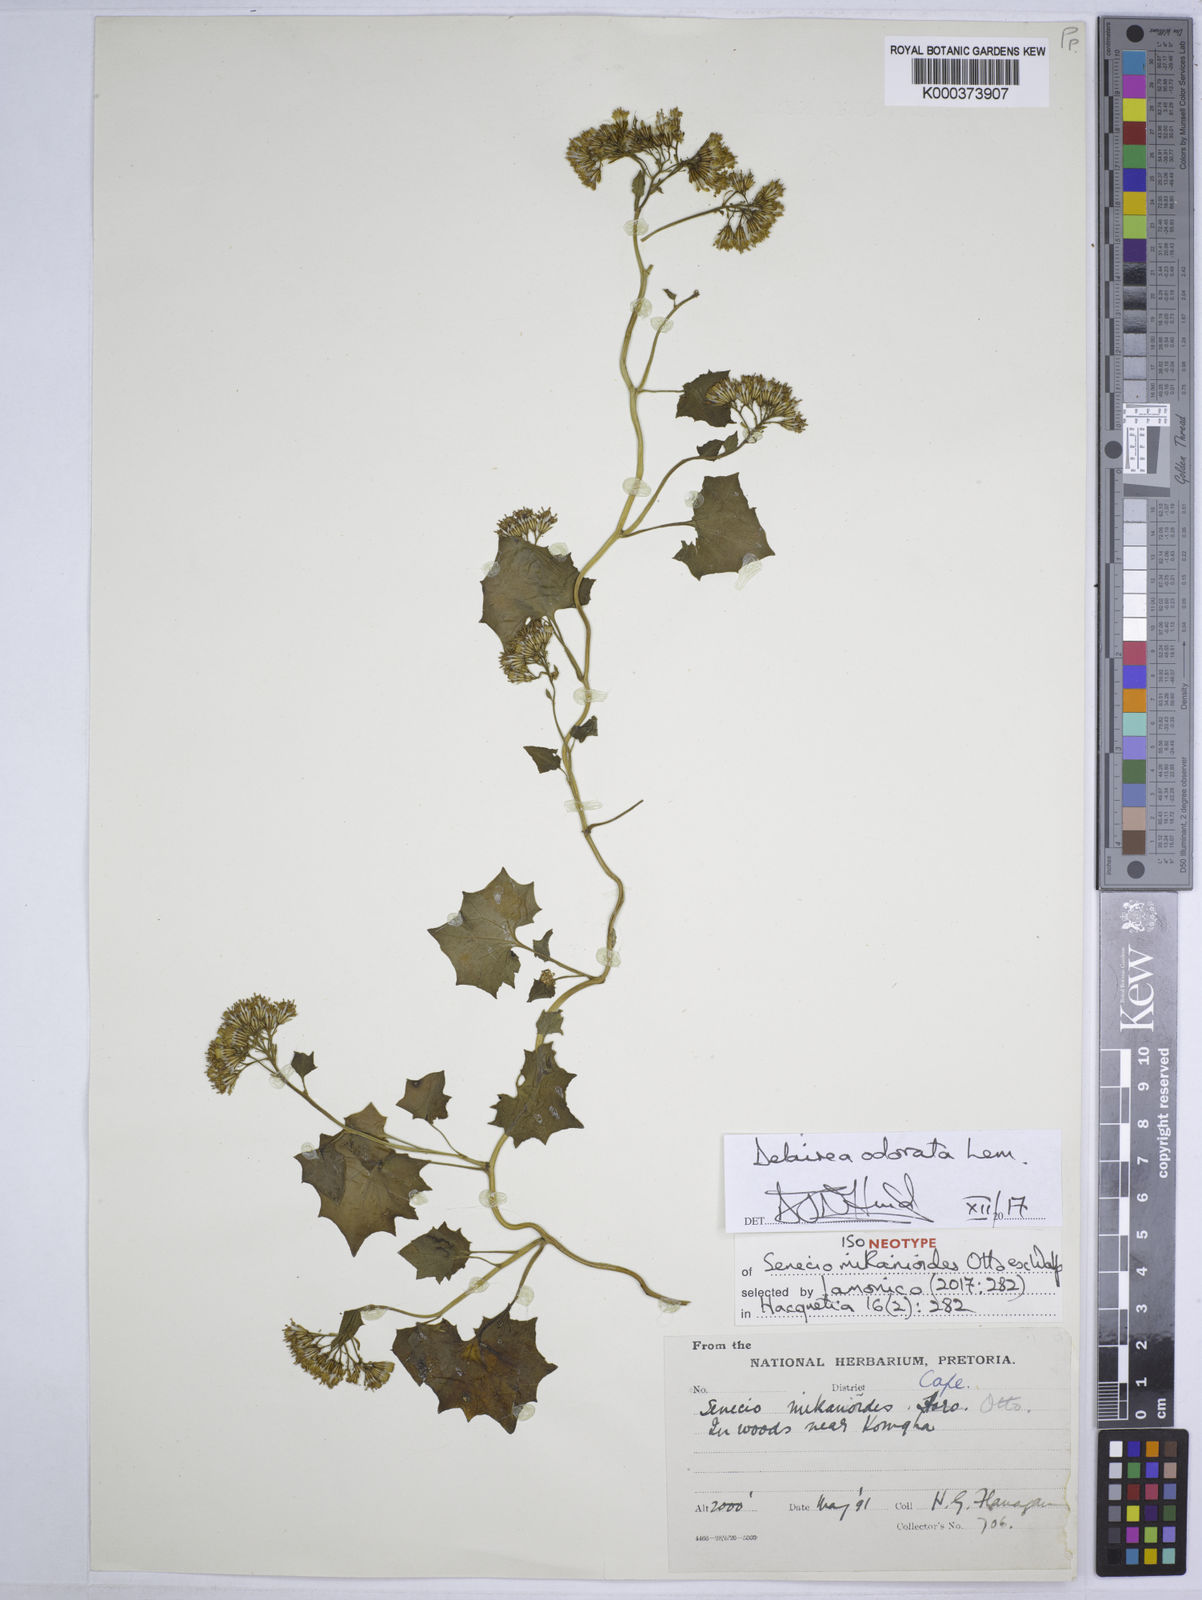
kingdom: Plantae
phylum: Tracheophyta
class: Magnoliopsida
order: Asterales
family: Asteraceae
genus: Delairea
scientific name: Delairea odorata
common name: Cape-ivy
